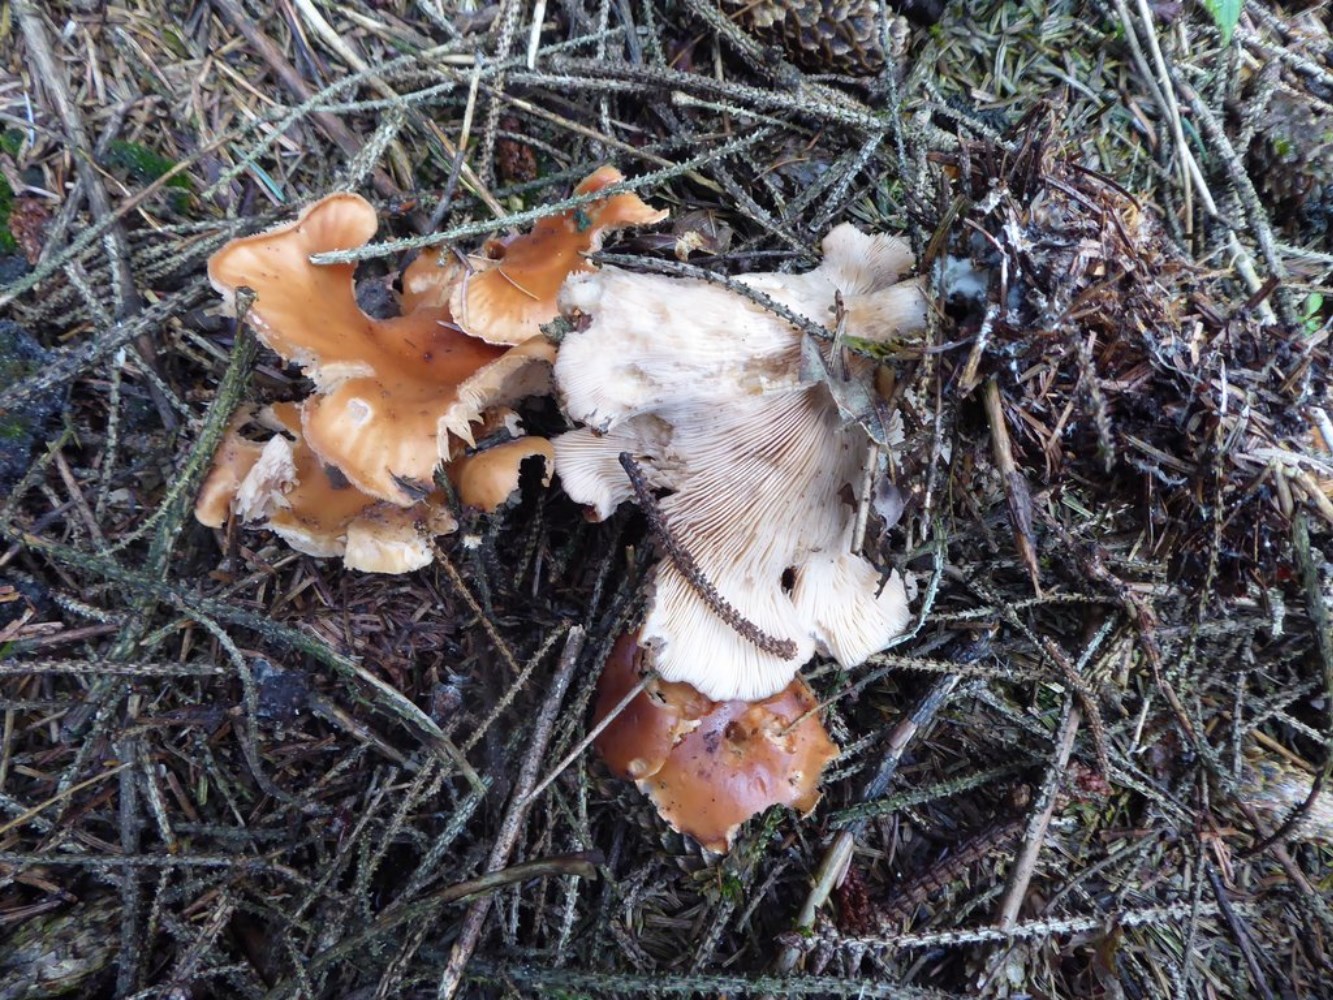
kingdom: Fungi
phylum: Basidiomycota
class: Agaricomycetes
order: Agaricales
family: Tricholomataceae
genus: Paralepista
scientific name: Paralepista flaccida
